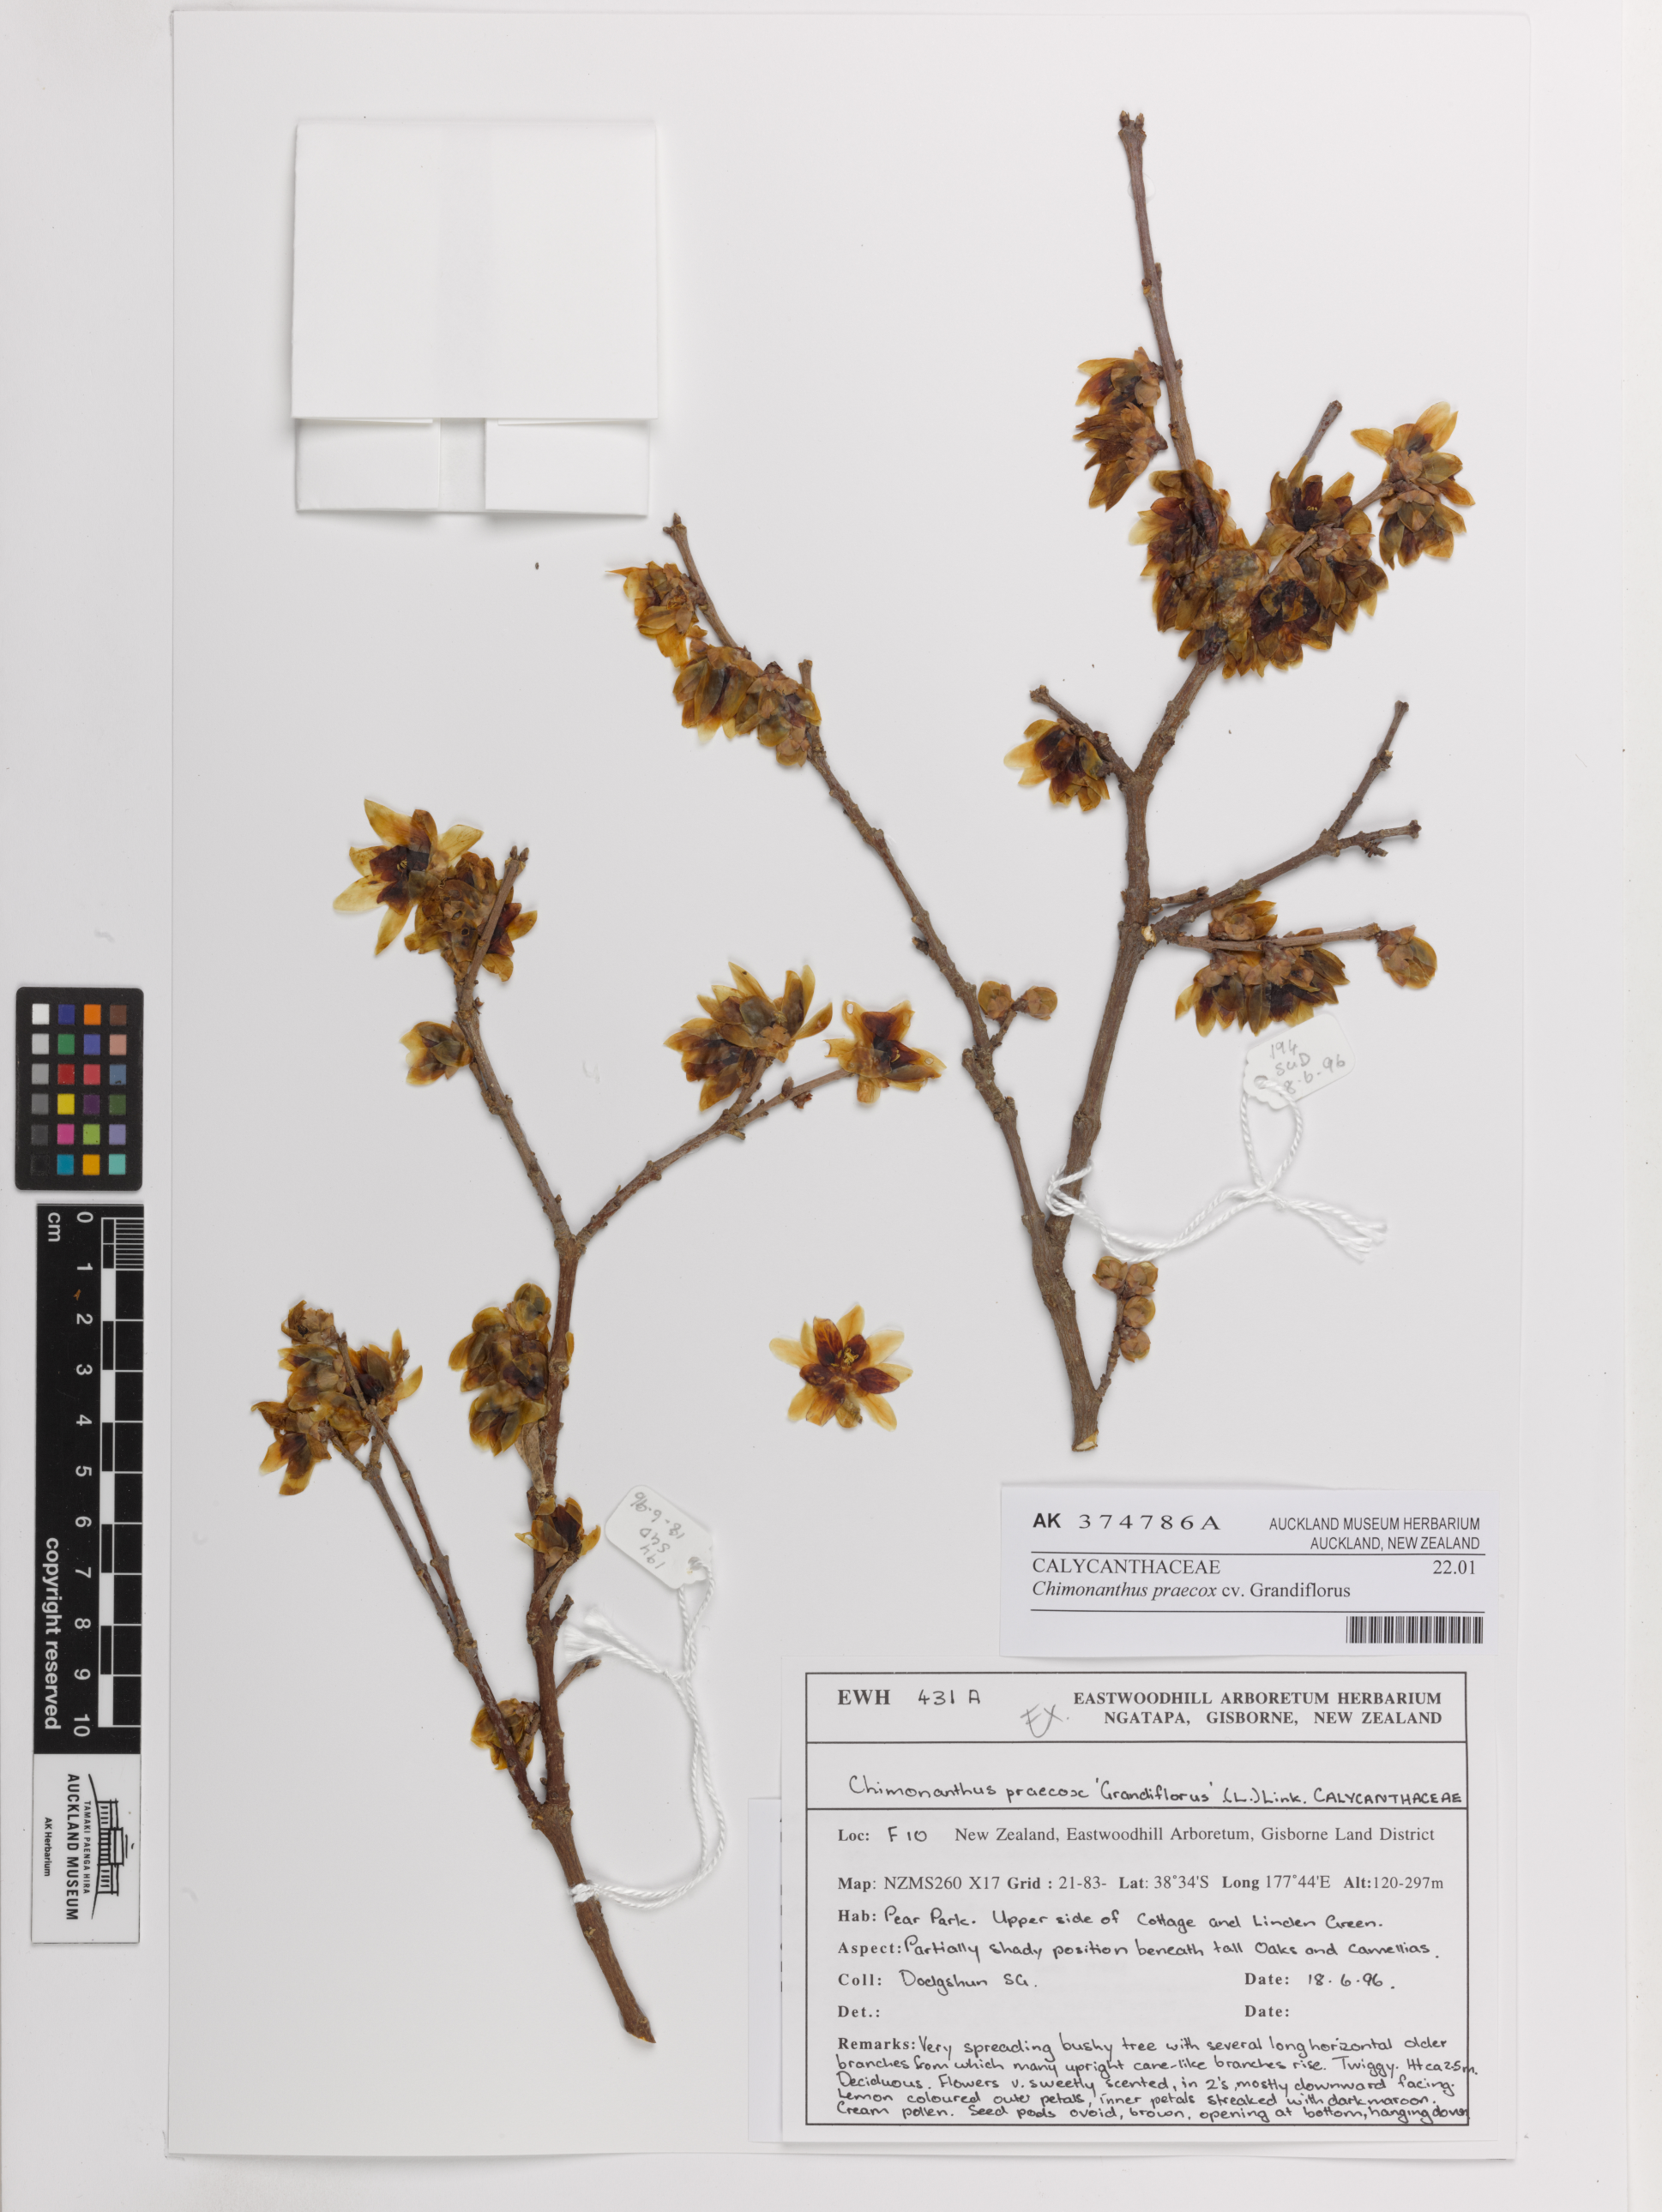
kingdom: Plantae
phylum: Tracheophyta
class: Magnoliopsida
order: Laurales
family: Calycanthaceae
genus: Chimonanthus
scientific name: Chimonanthus praecox
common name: Wintersweet
